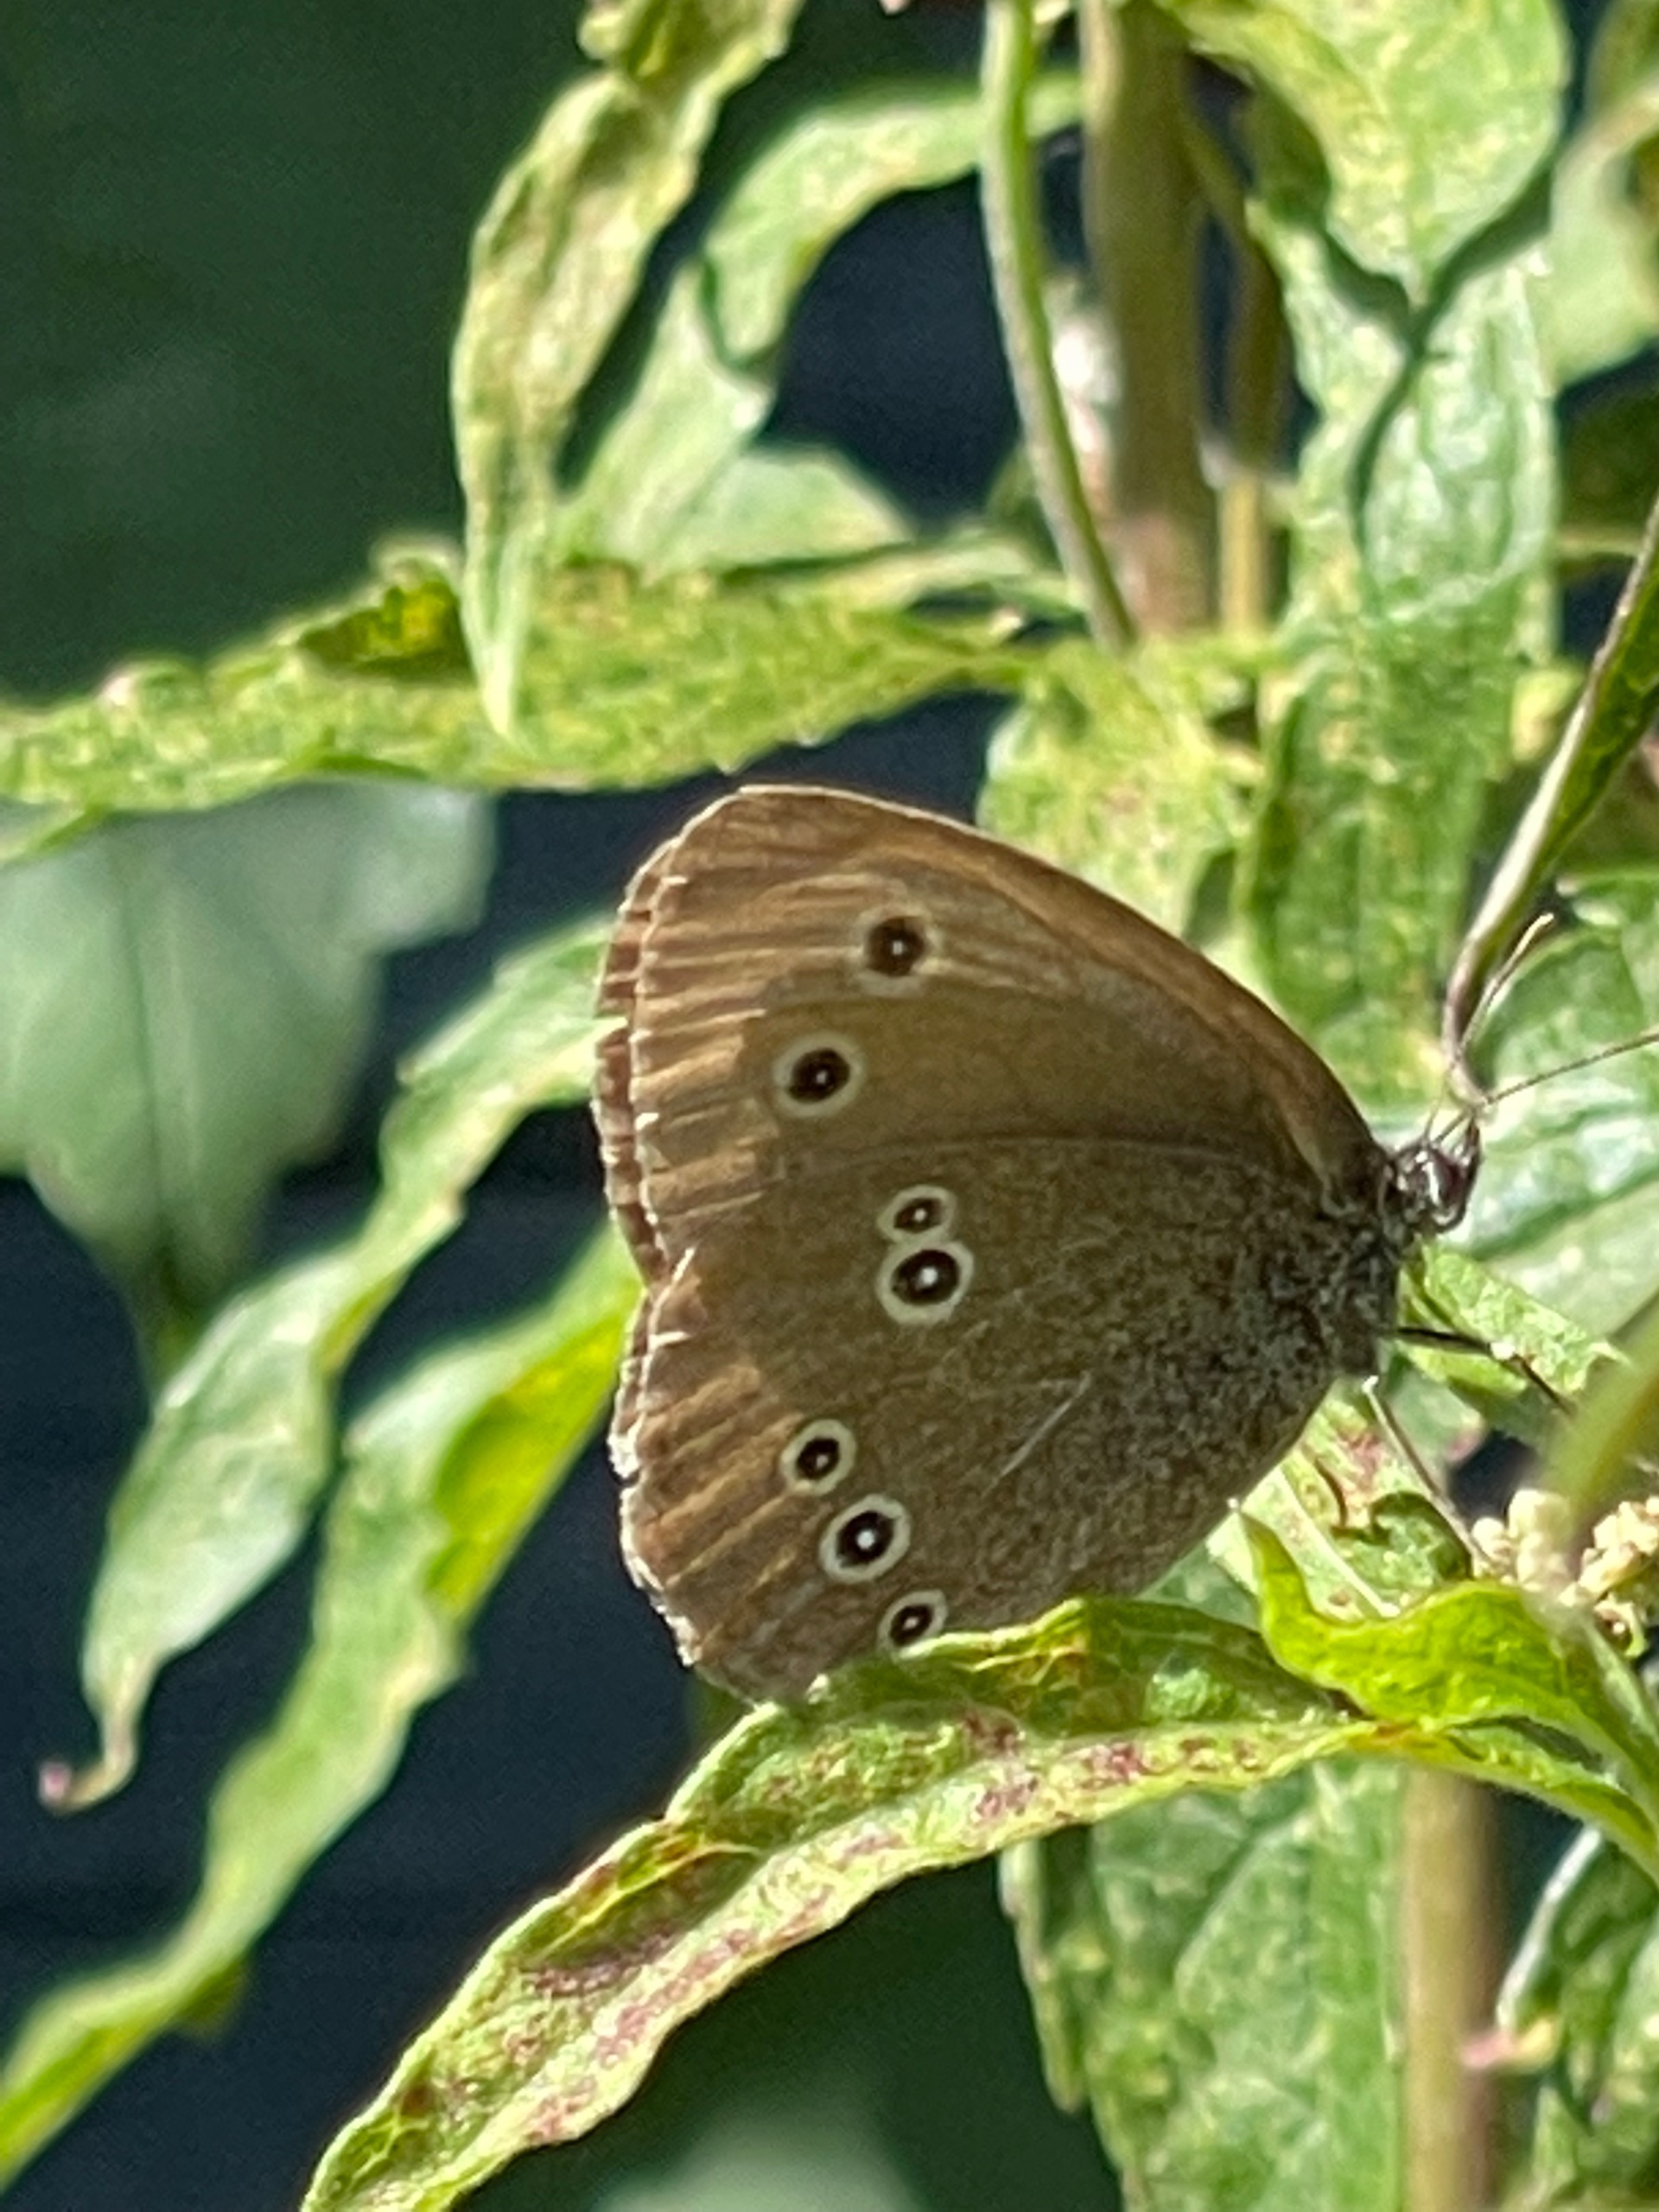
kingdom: Animalia
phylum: Arthropoda
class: Insecta
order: Lepidoptera
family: Nymphalidae
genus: Aphantopus
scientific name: Aphantopus hyperantus
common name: Engrandøje
